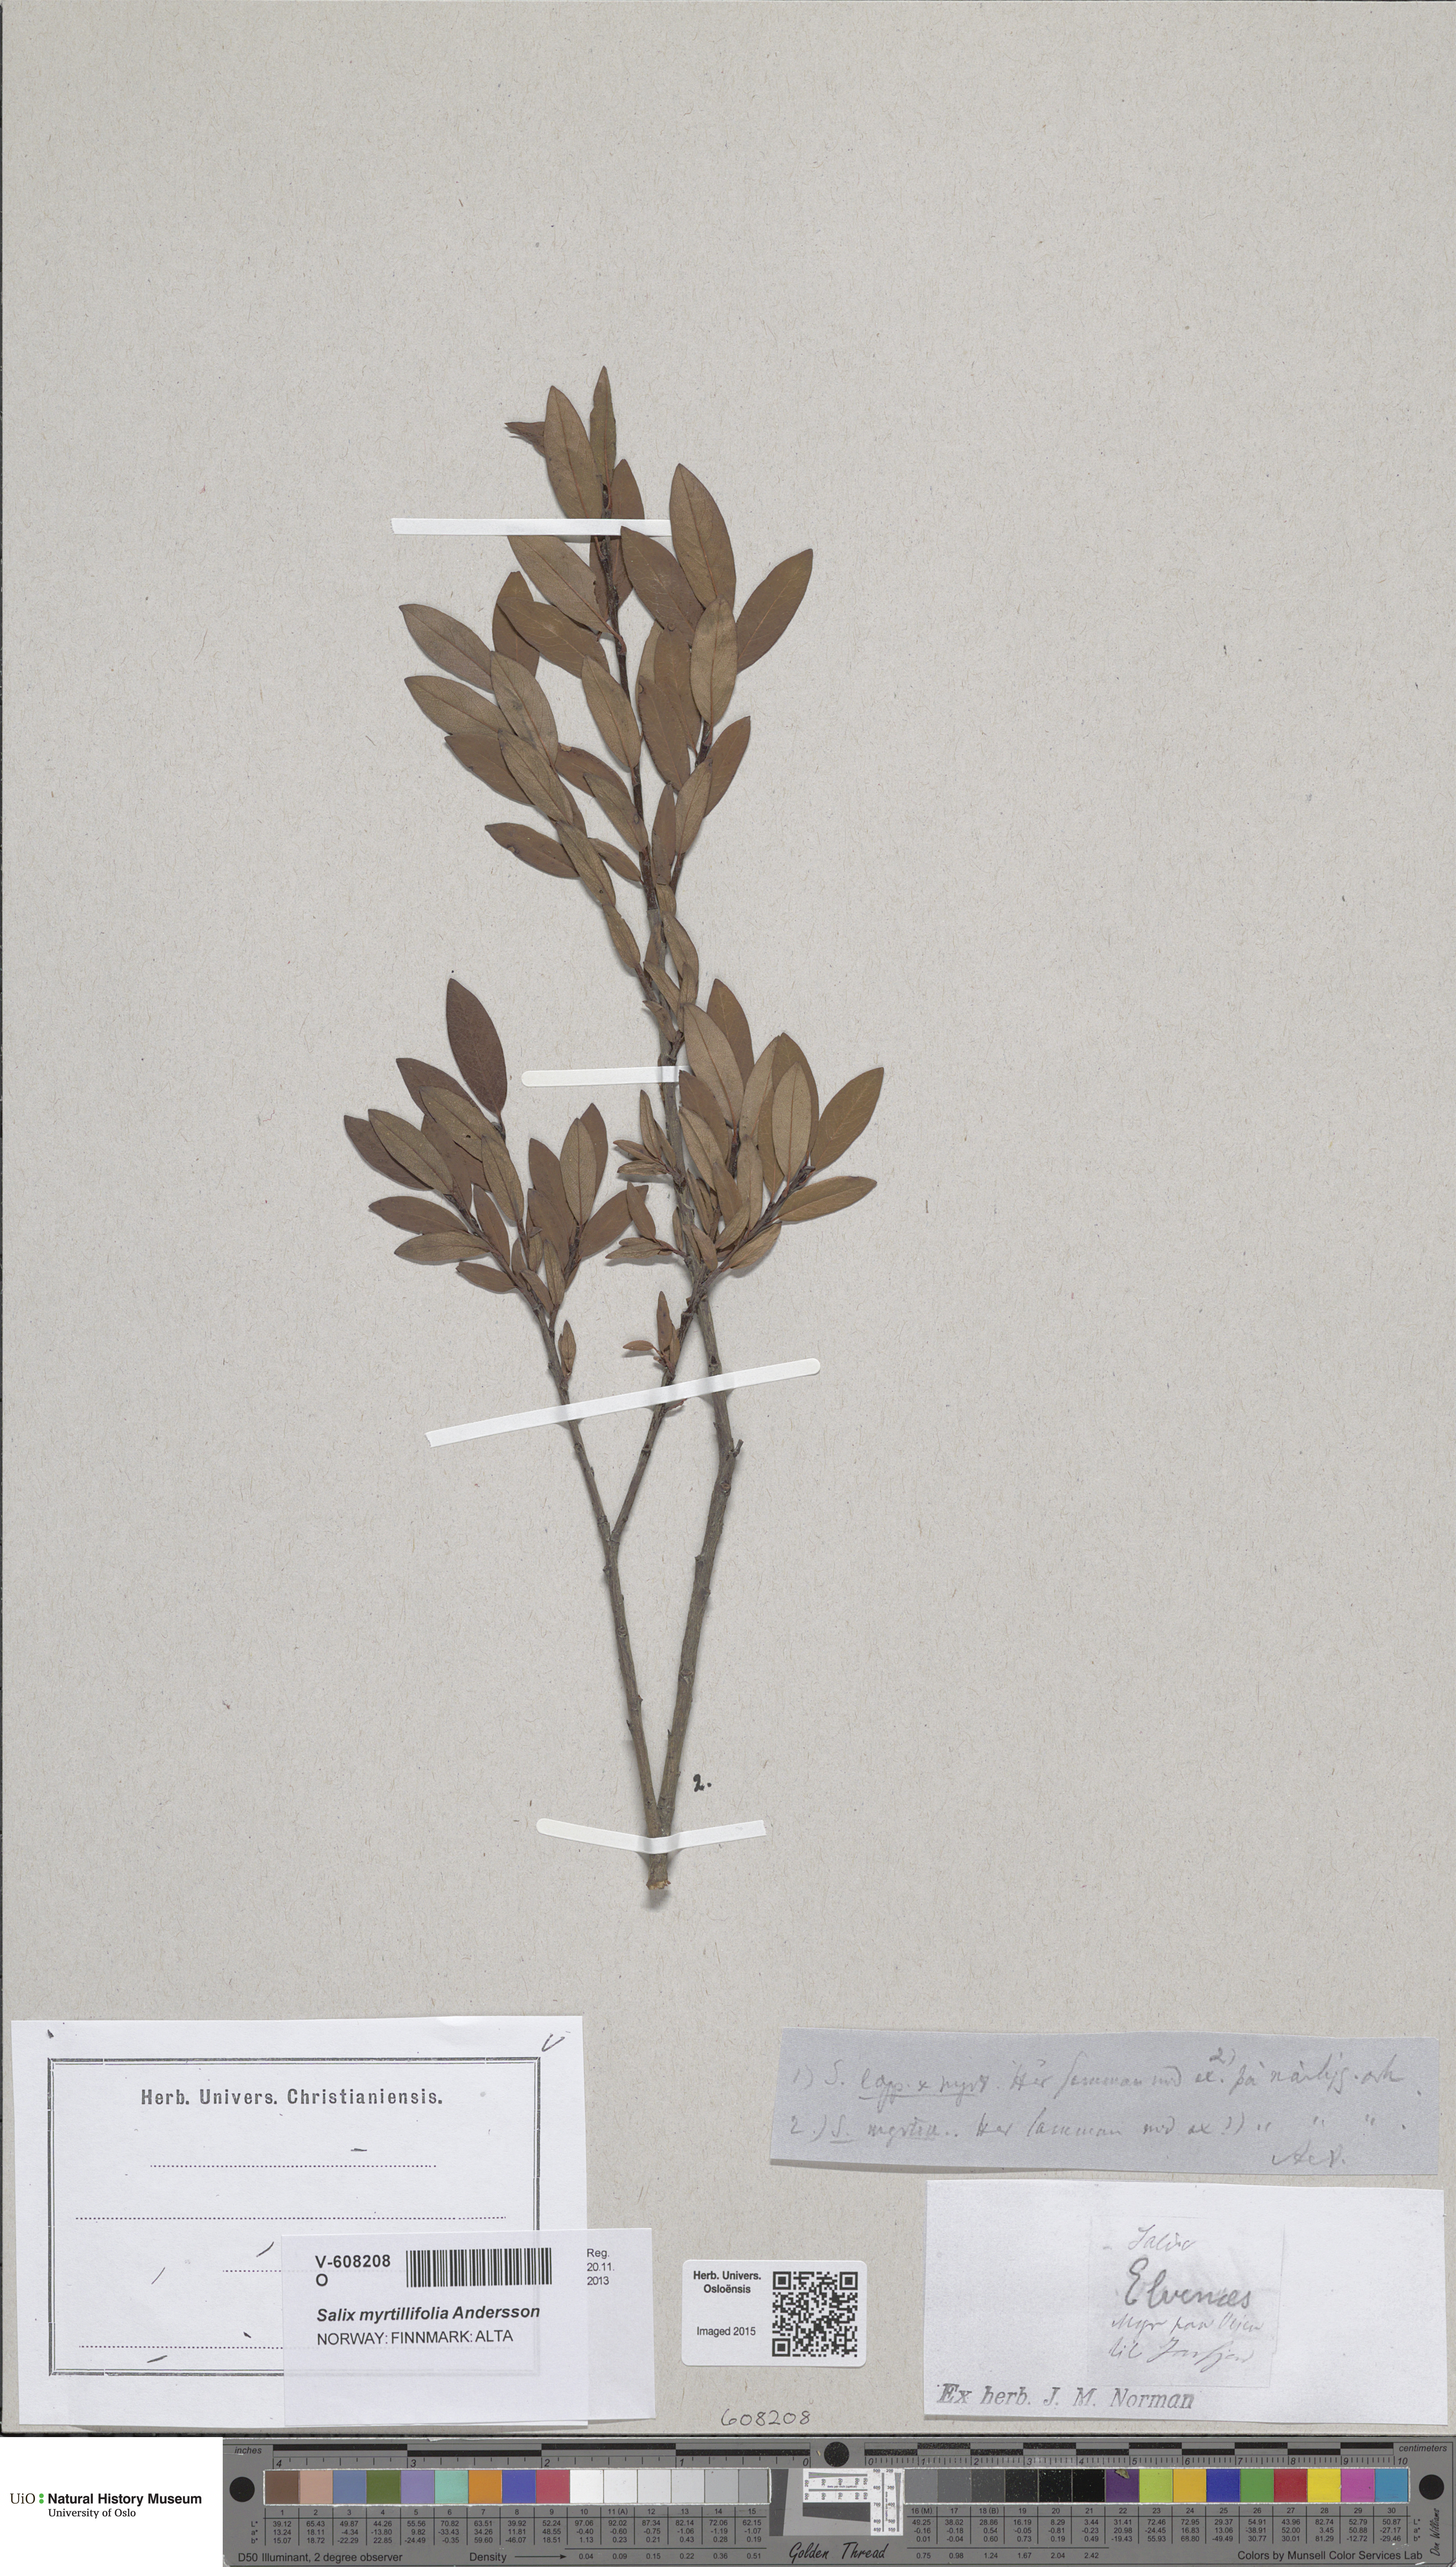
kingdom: Plantae
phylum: Tracheophyta
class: Magnoliopsida
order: Malpighiales
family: Salicaceae
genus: Salix
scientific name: Salix myrtilloides
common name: Myrtle-leaved willow
